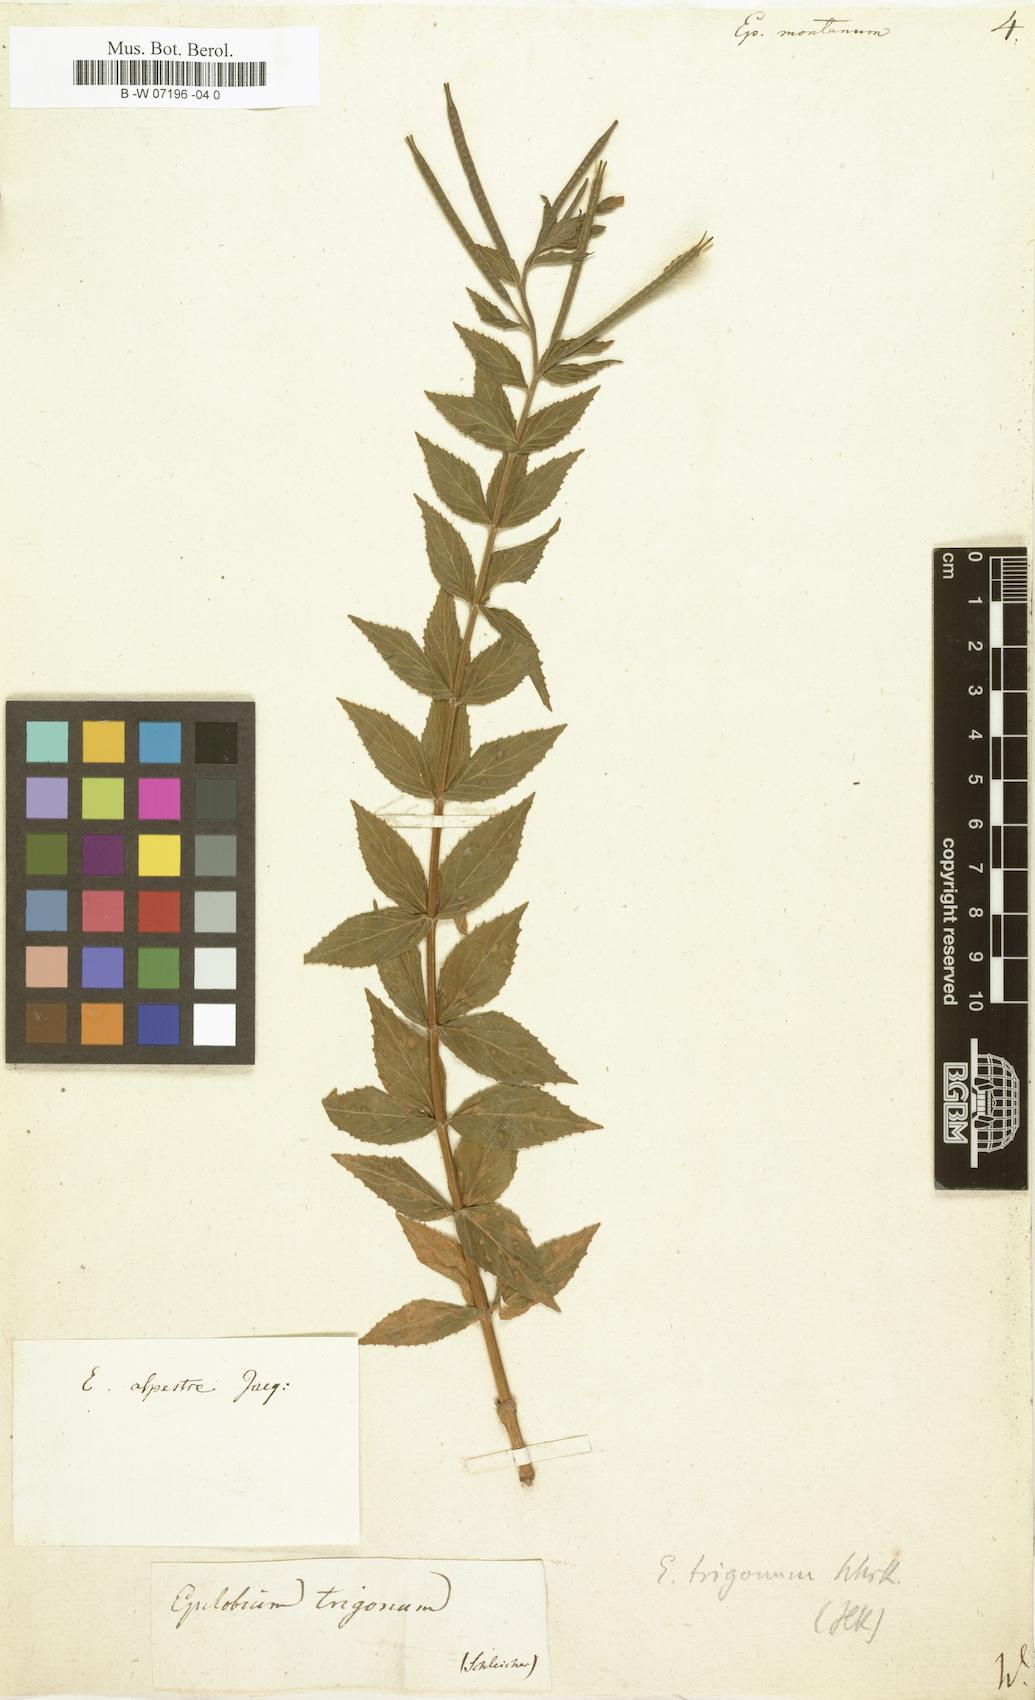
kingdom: Plantae
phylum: Tracheophyta
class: Magnoliopsida
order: Myrtales
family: Onagraceae
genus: Epilobium
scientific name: Epilobium montanum
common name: Broad-leaved willowherb
